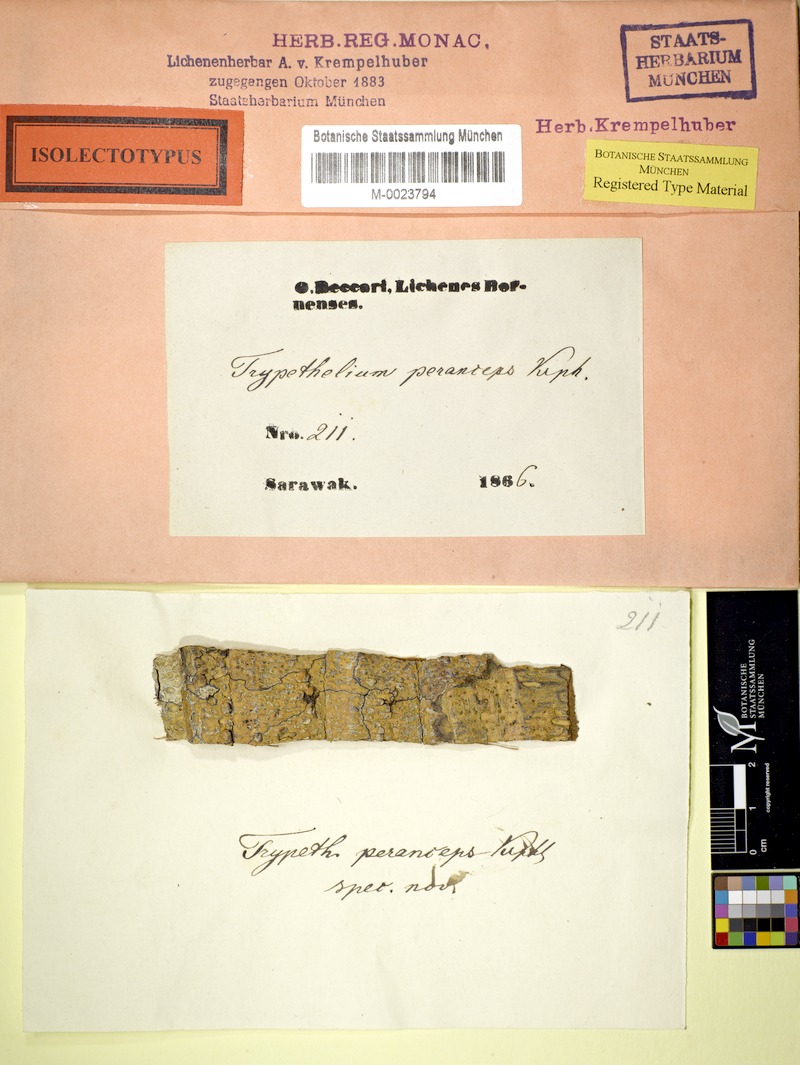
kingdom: Fungi
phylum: Ascomycota
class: Dothideomycetes
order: Trypetheliales
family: Trypetheliaceae
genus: Astrothelium
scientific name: Astrothelium subfuscum
